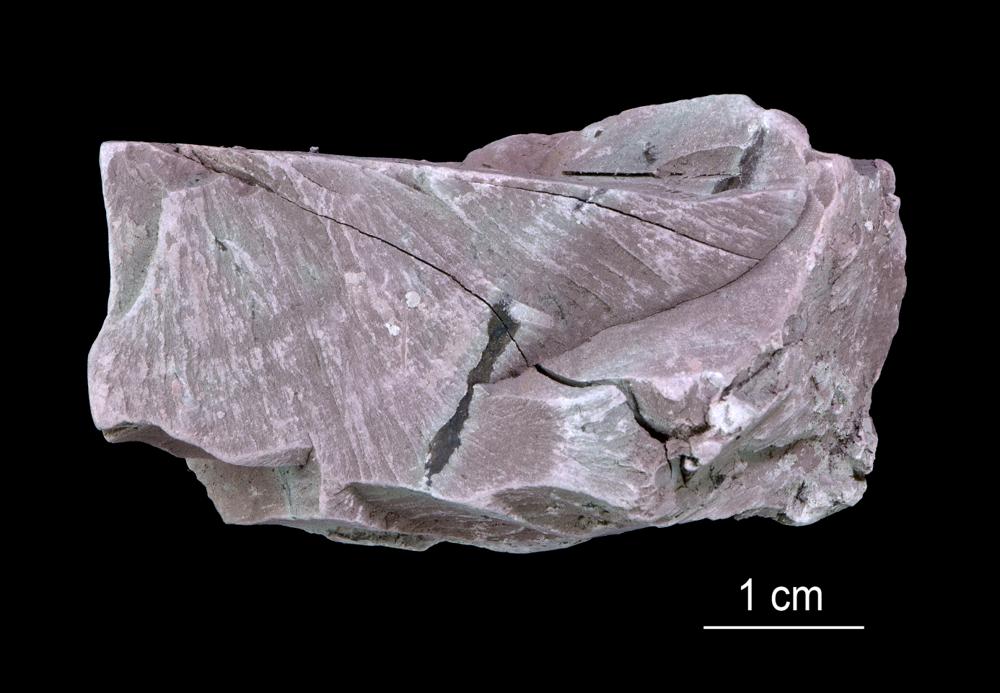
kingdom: Chromista
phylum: Foraminifera
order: Astrorhizida
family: Hyperamminidae
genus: Platysolenites
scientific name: Platysolenites
